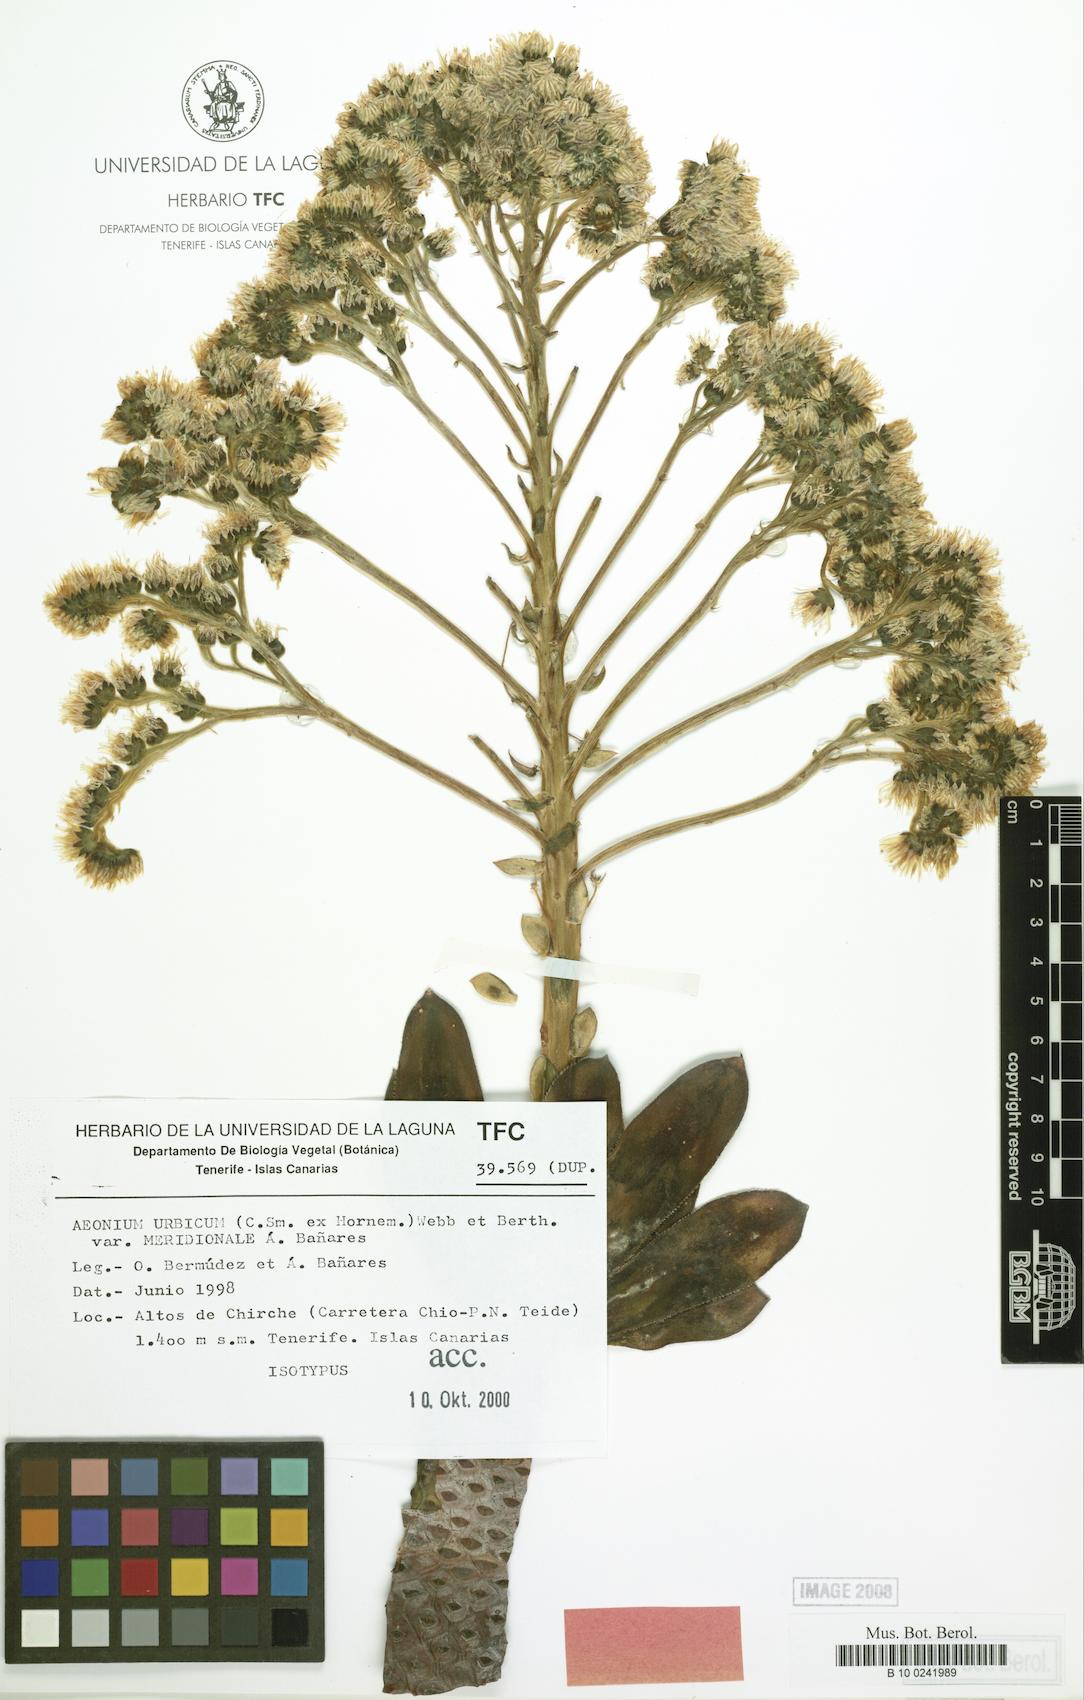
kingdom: Plantae
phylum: Tracheophyta
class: Magnoliopsida
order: Saxifragales
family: Crassulaceae
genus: Aeonium
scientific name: Aeonium urbicum
